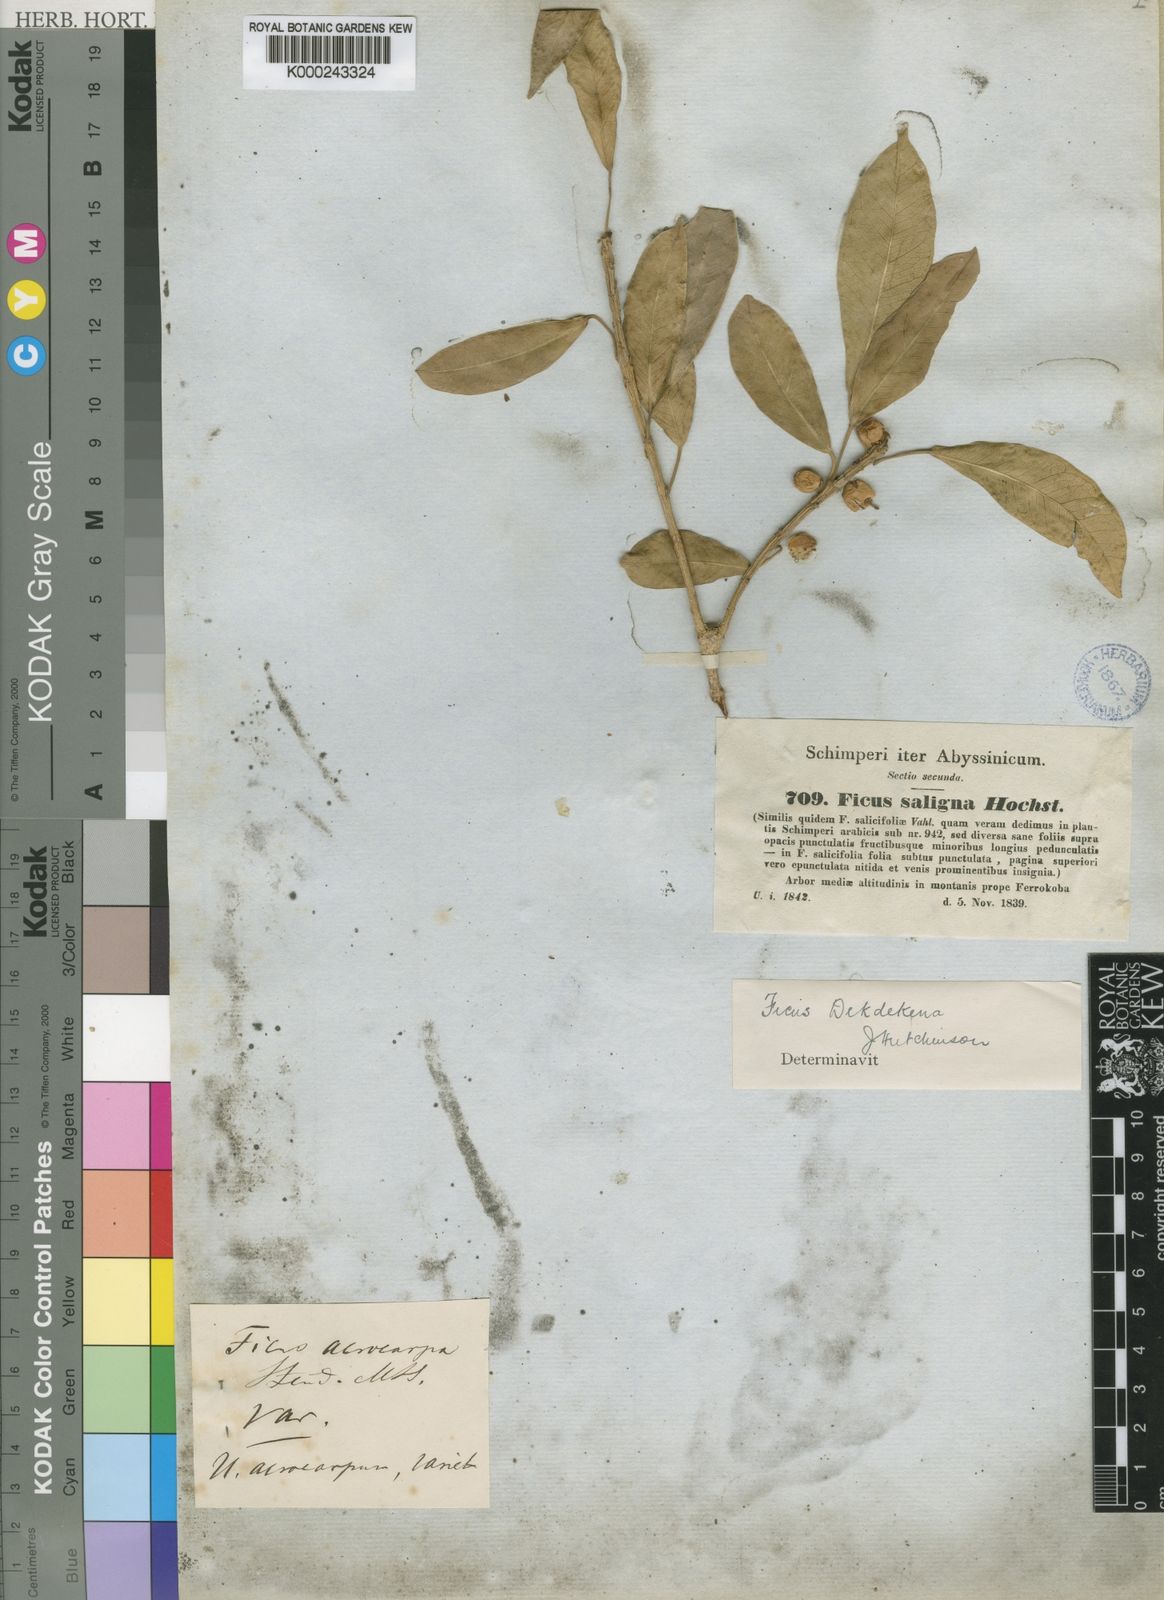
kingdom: Plantae
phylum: Tracheophyta
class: Magnoliopsida
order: Rosales
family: Moraceae
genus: Ficus
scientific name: Ficus thonningii
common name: Fig
